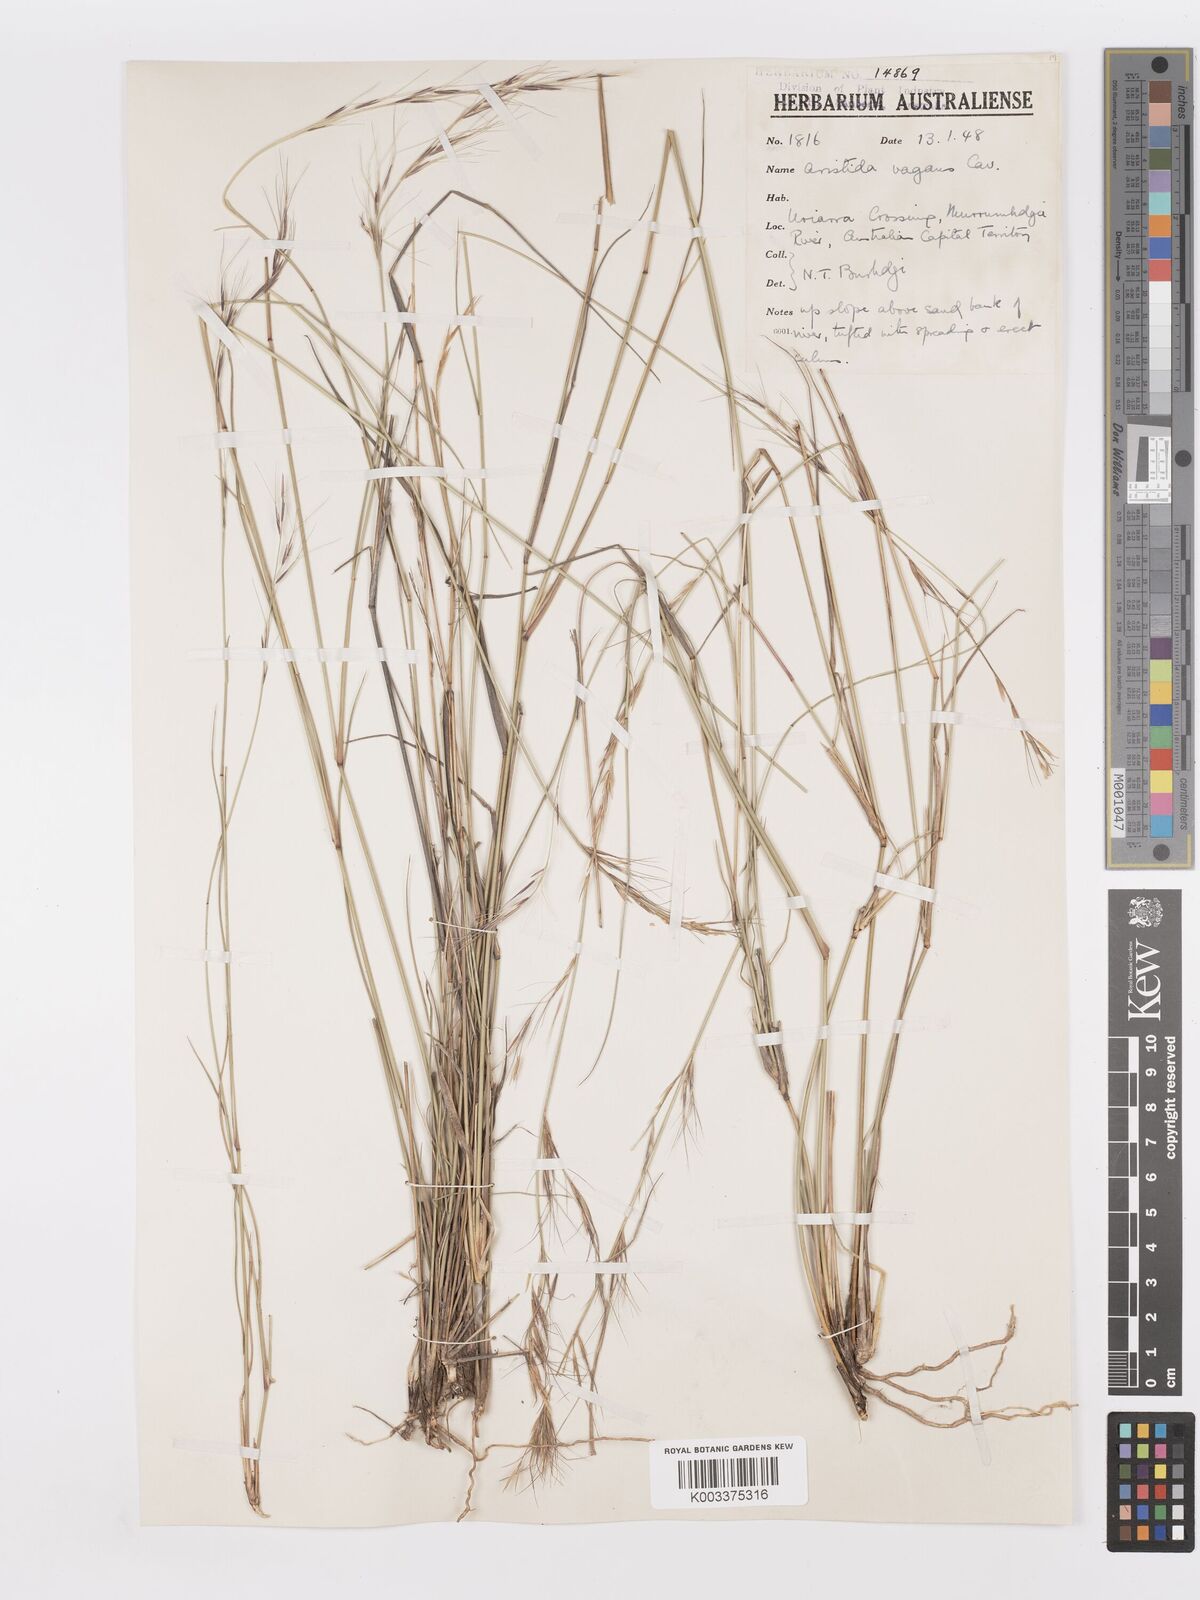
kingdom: Plantae
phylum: Tracheophyta
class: Liliopsida
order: Poales
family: Poaceae
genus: Aristida
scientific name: Aristida vagans
